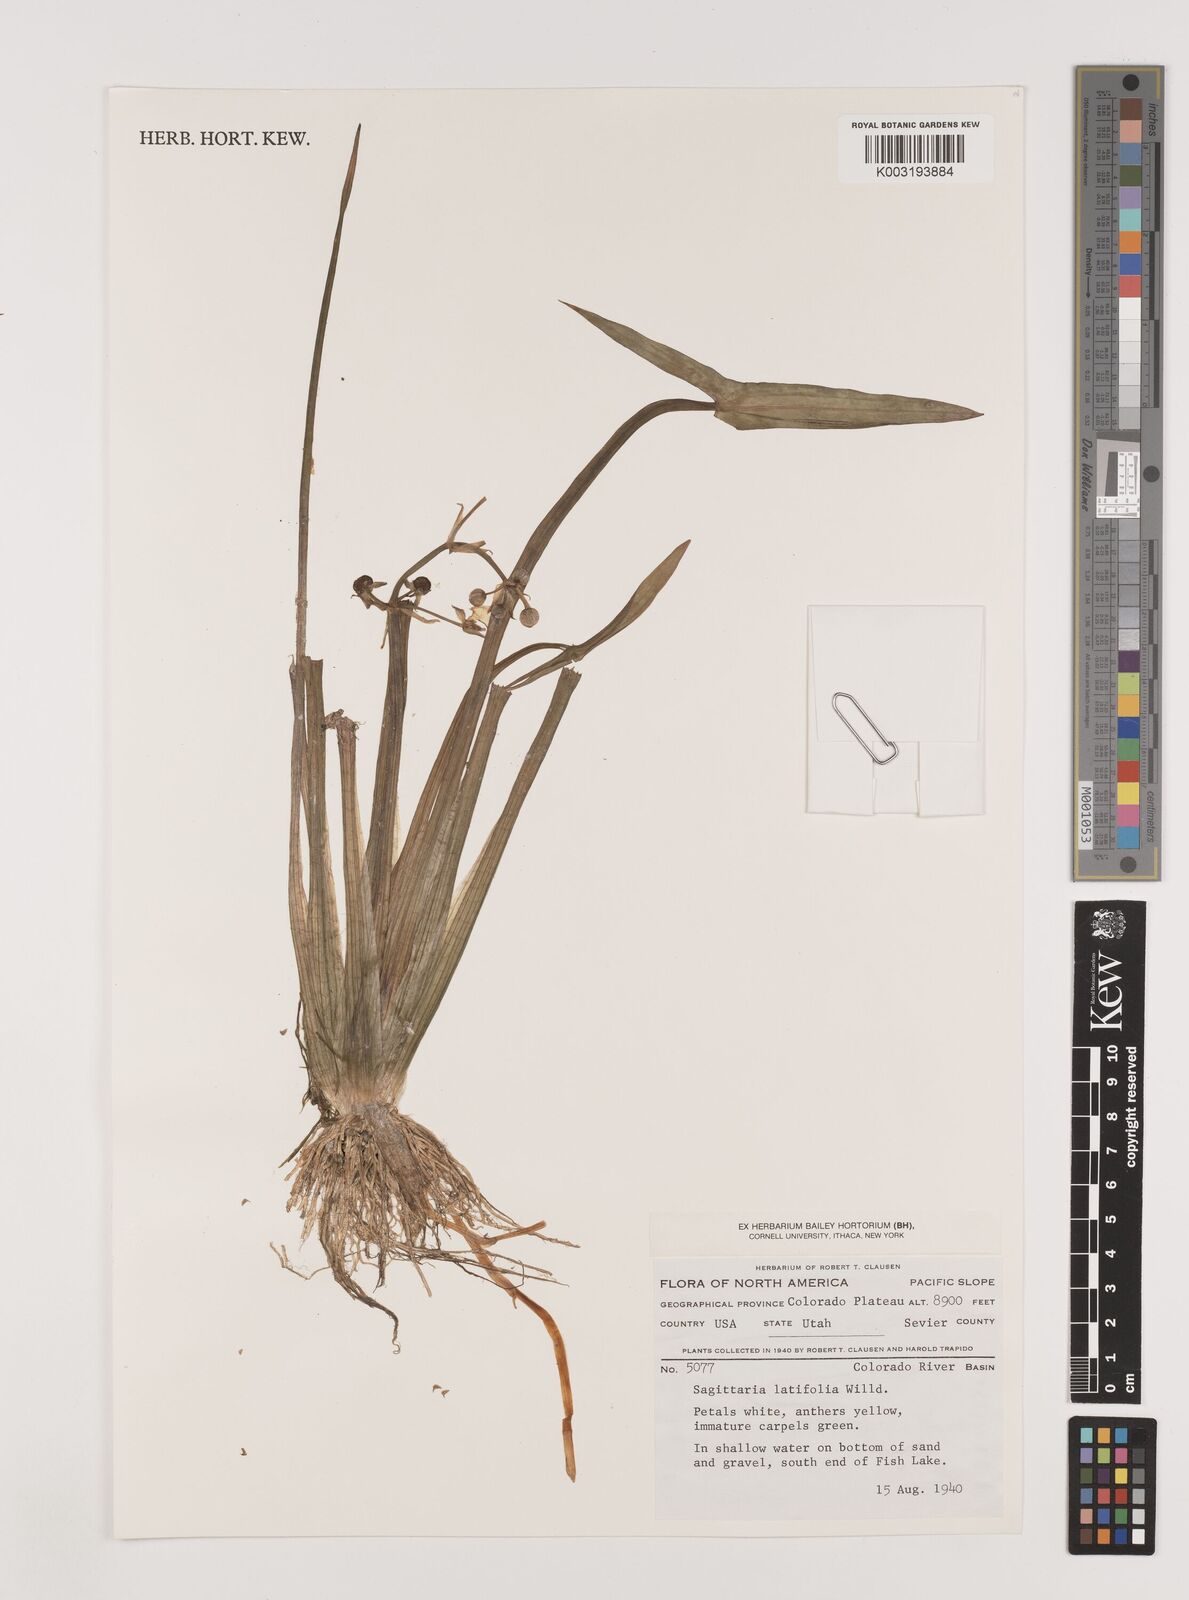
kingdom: Plantae
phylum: Tracheophyta
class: Liliopsida
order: Alismatales
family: Alismataceae
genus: Sagittaria
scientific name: Sagittaria latifolia
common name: Duck-potato
